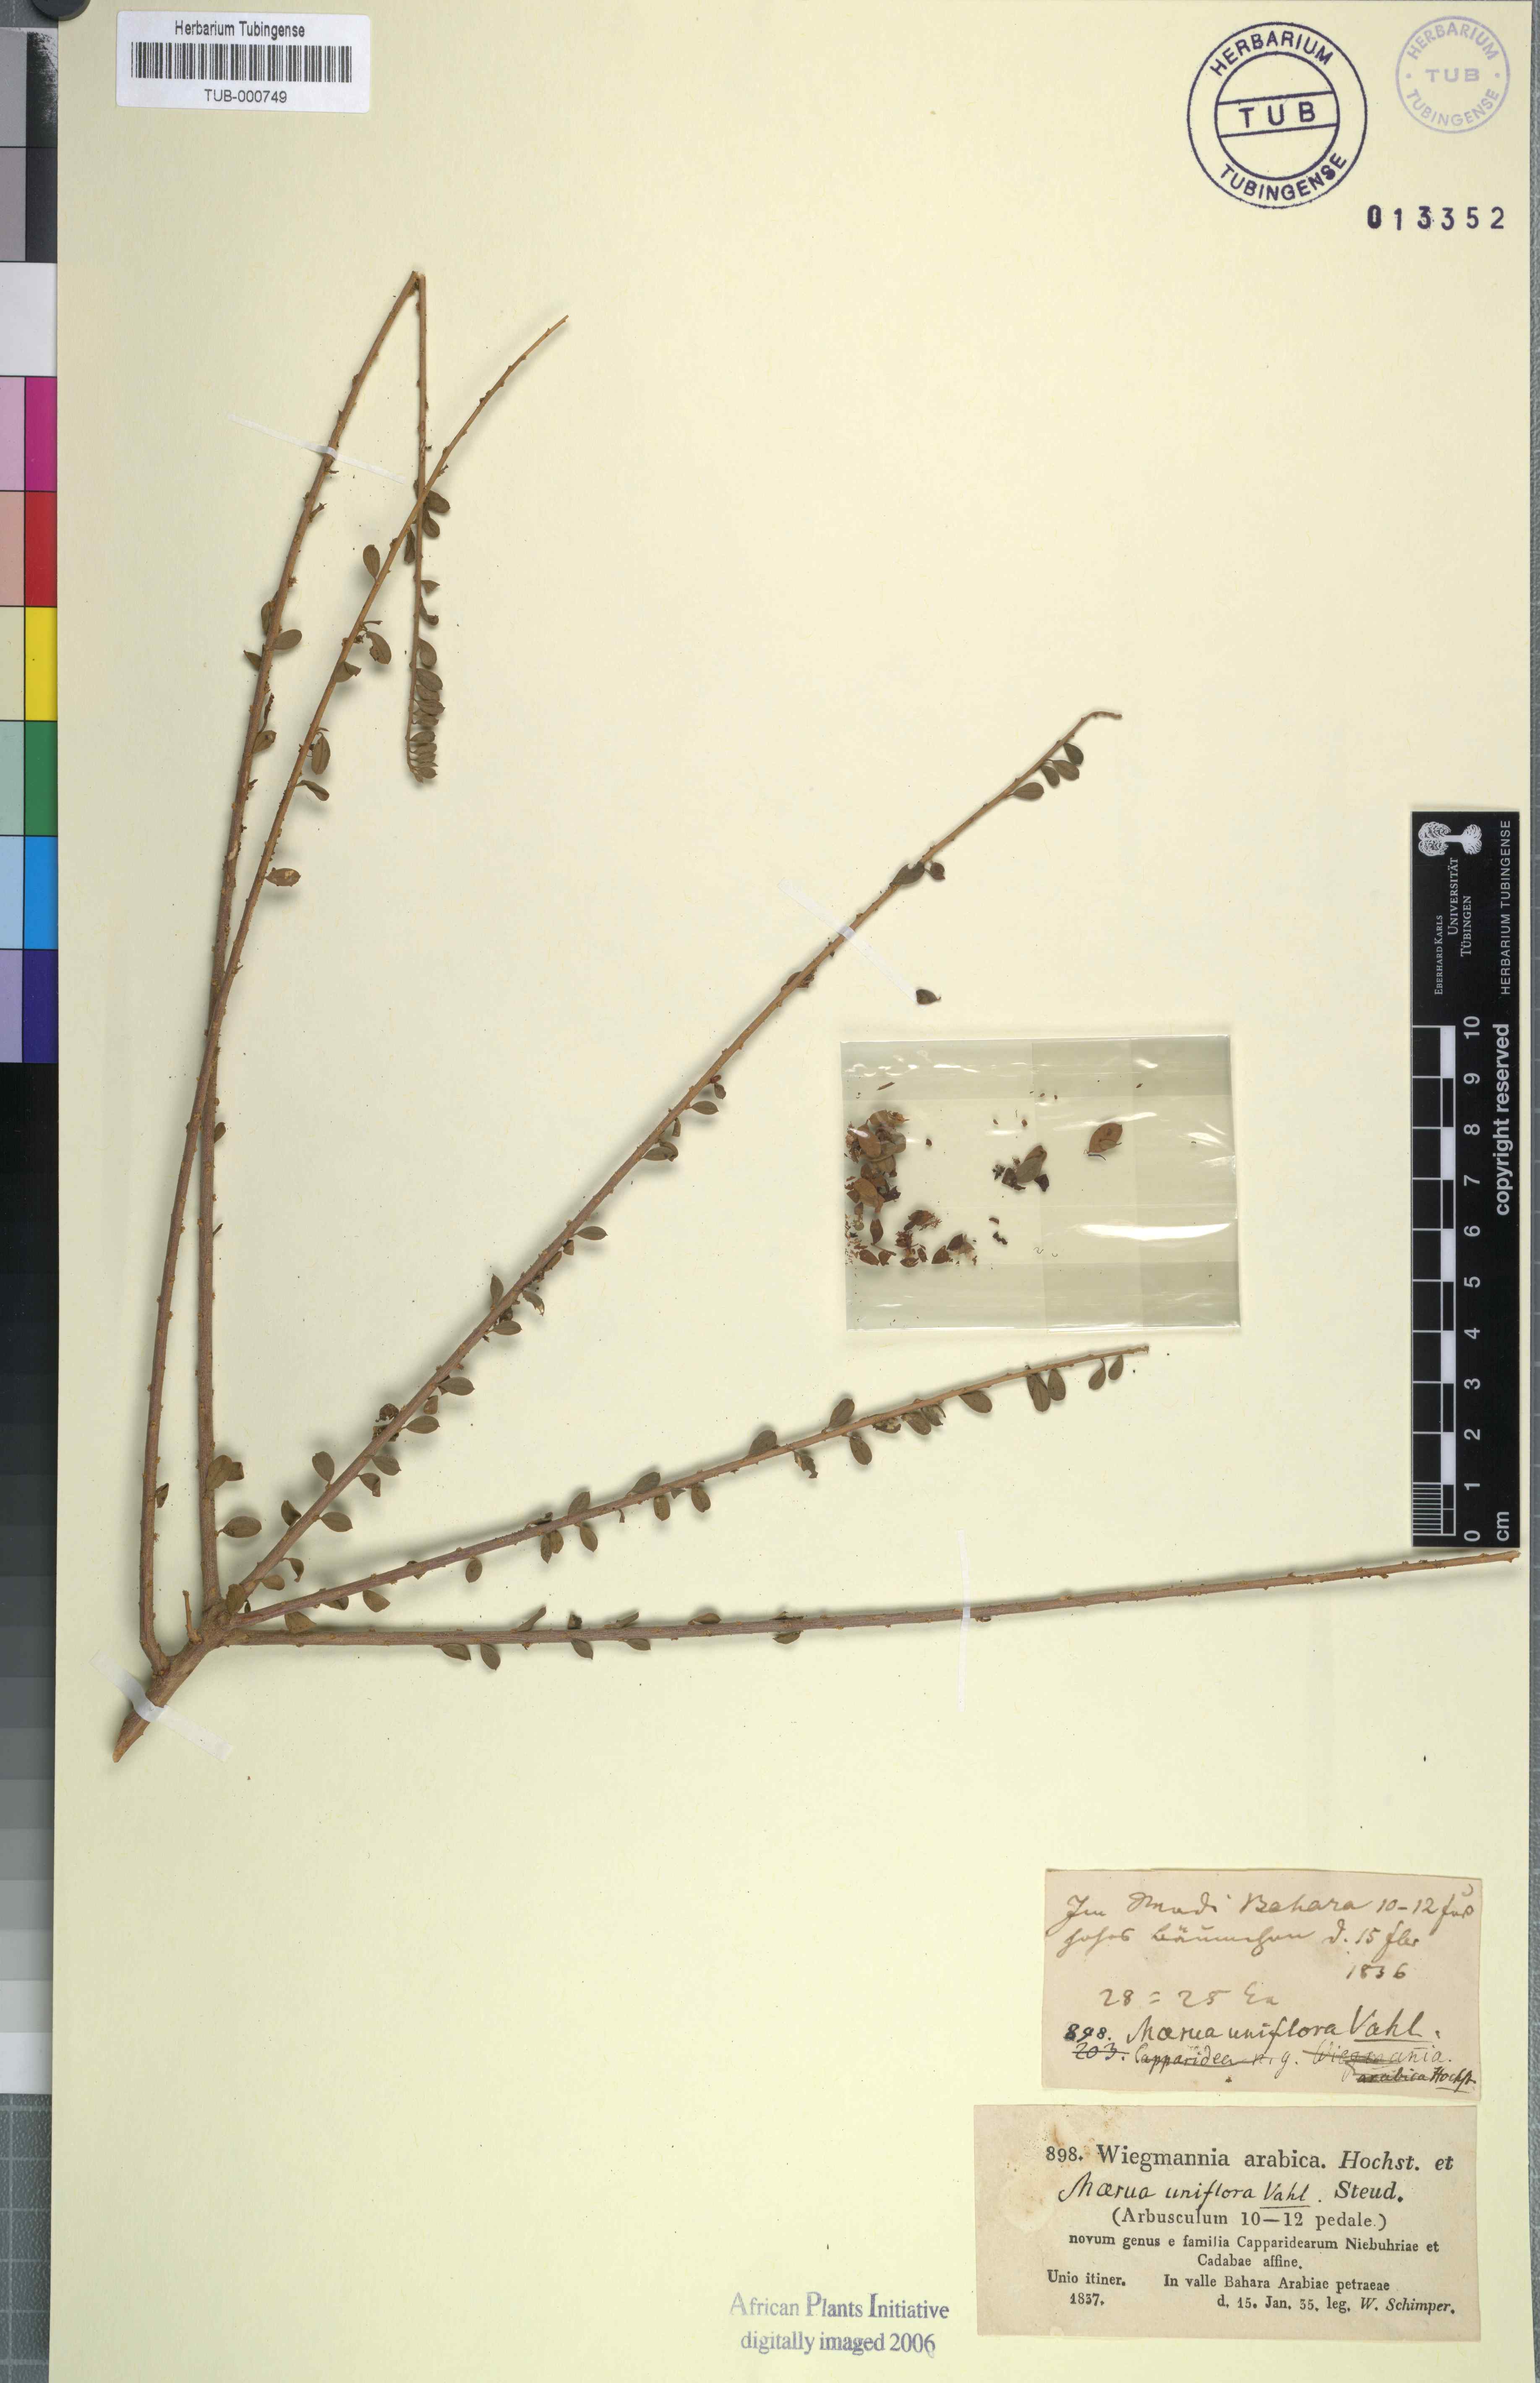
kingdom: Plantae
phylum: Tracheophyta
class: Magnoliopsida
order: Brassicales
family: Capparaceae
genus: Maerua
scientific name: Maerua crassifolia
